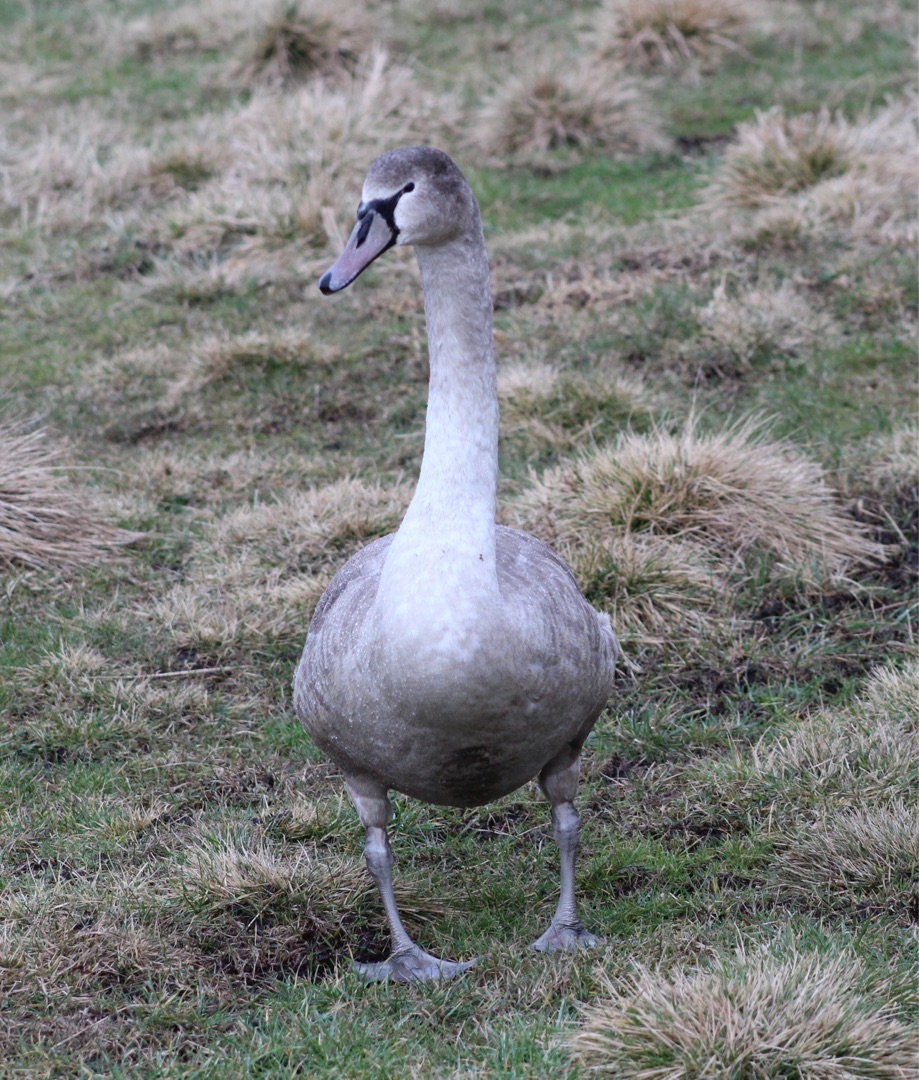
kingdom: Animalia
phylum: Chordata
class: Aves
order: Anseriformes
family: Anatidae
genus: Cygnus
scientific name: Cygnus olor
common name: Knopsvane
